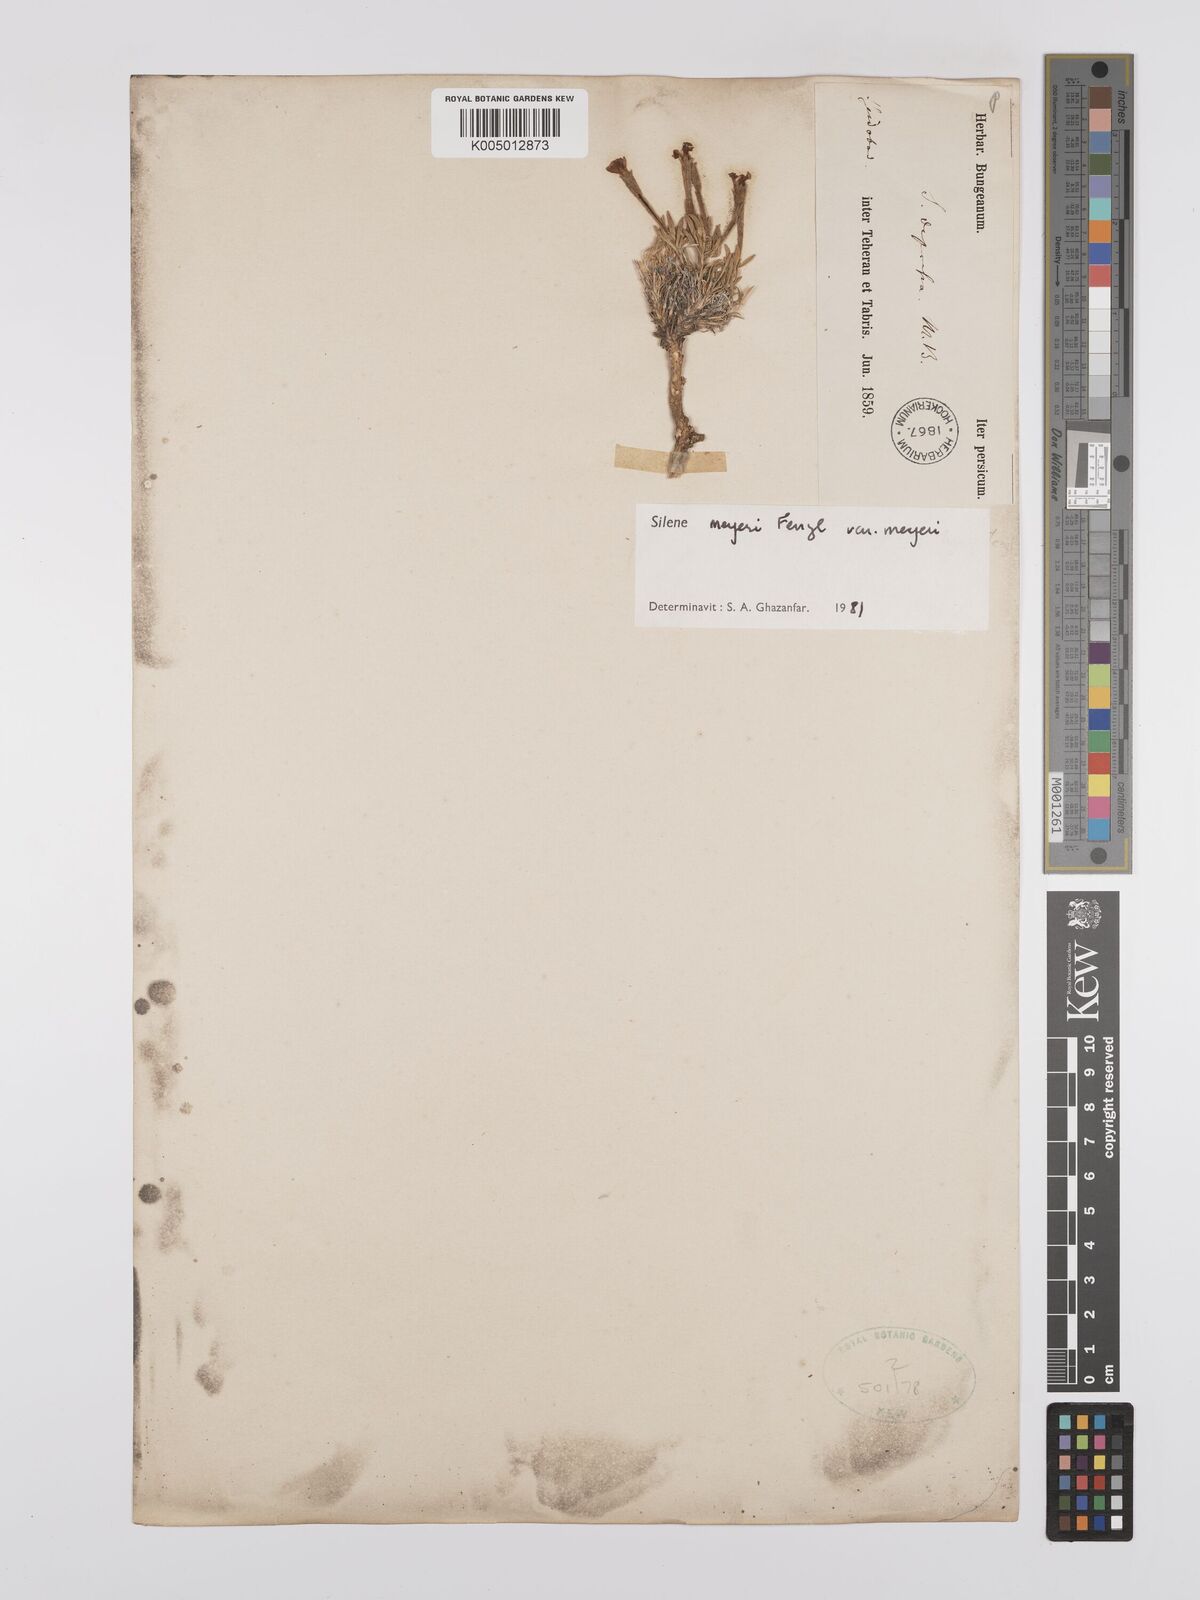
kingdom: Plantae
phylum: Tracheophyta
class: Magnoliopsida
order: Caryophyllales
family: Caryophyllaceae
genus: Silene
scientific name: Silene meyeri
